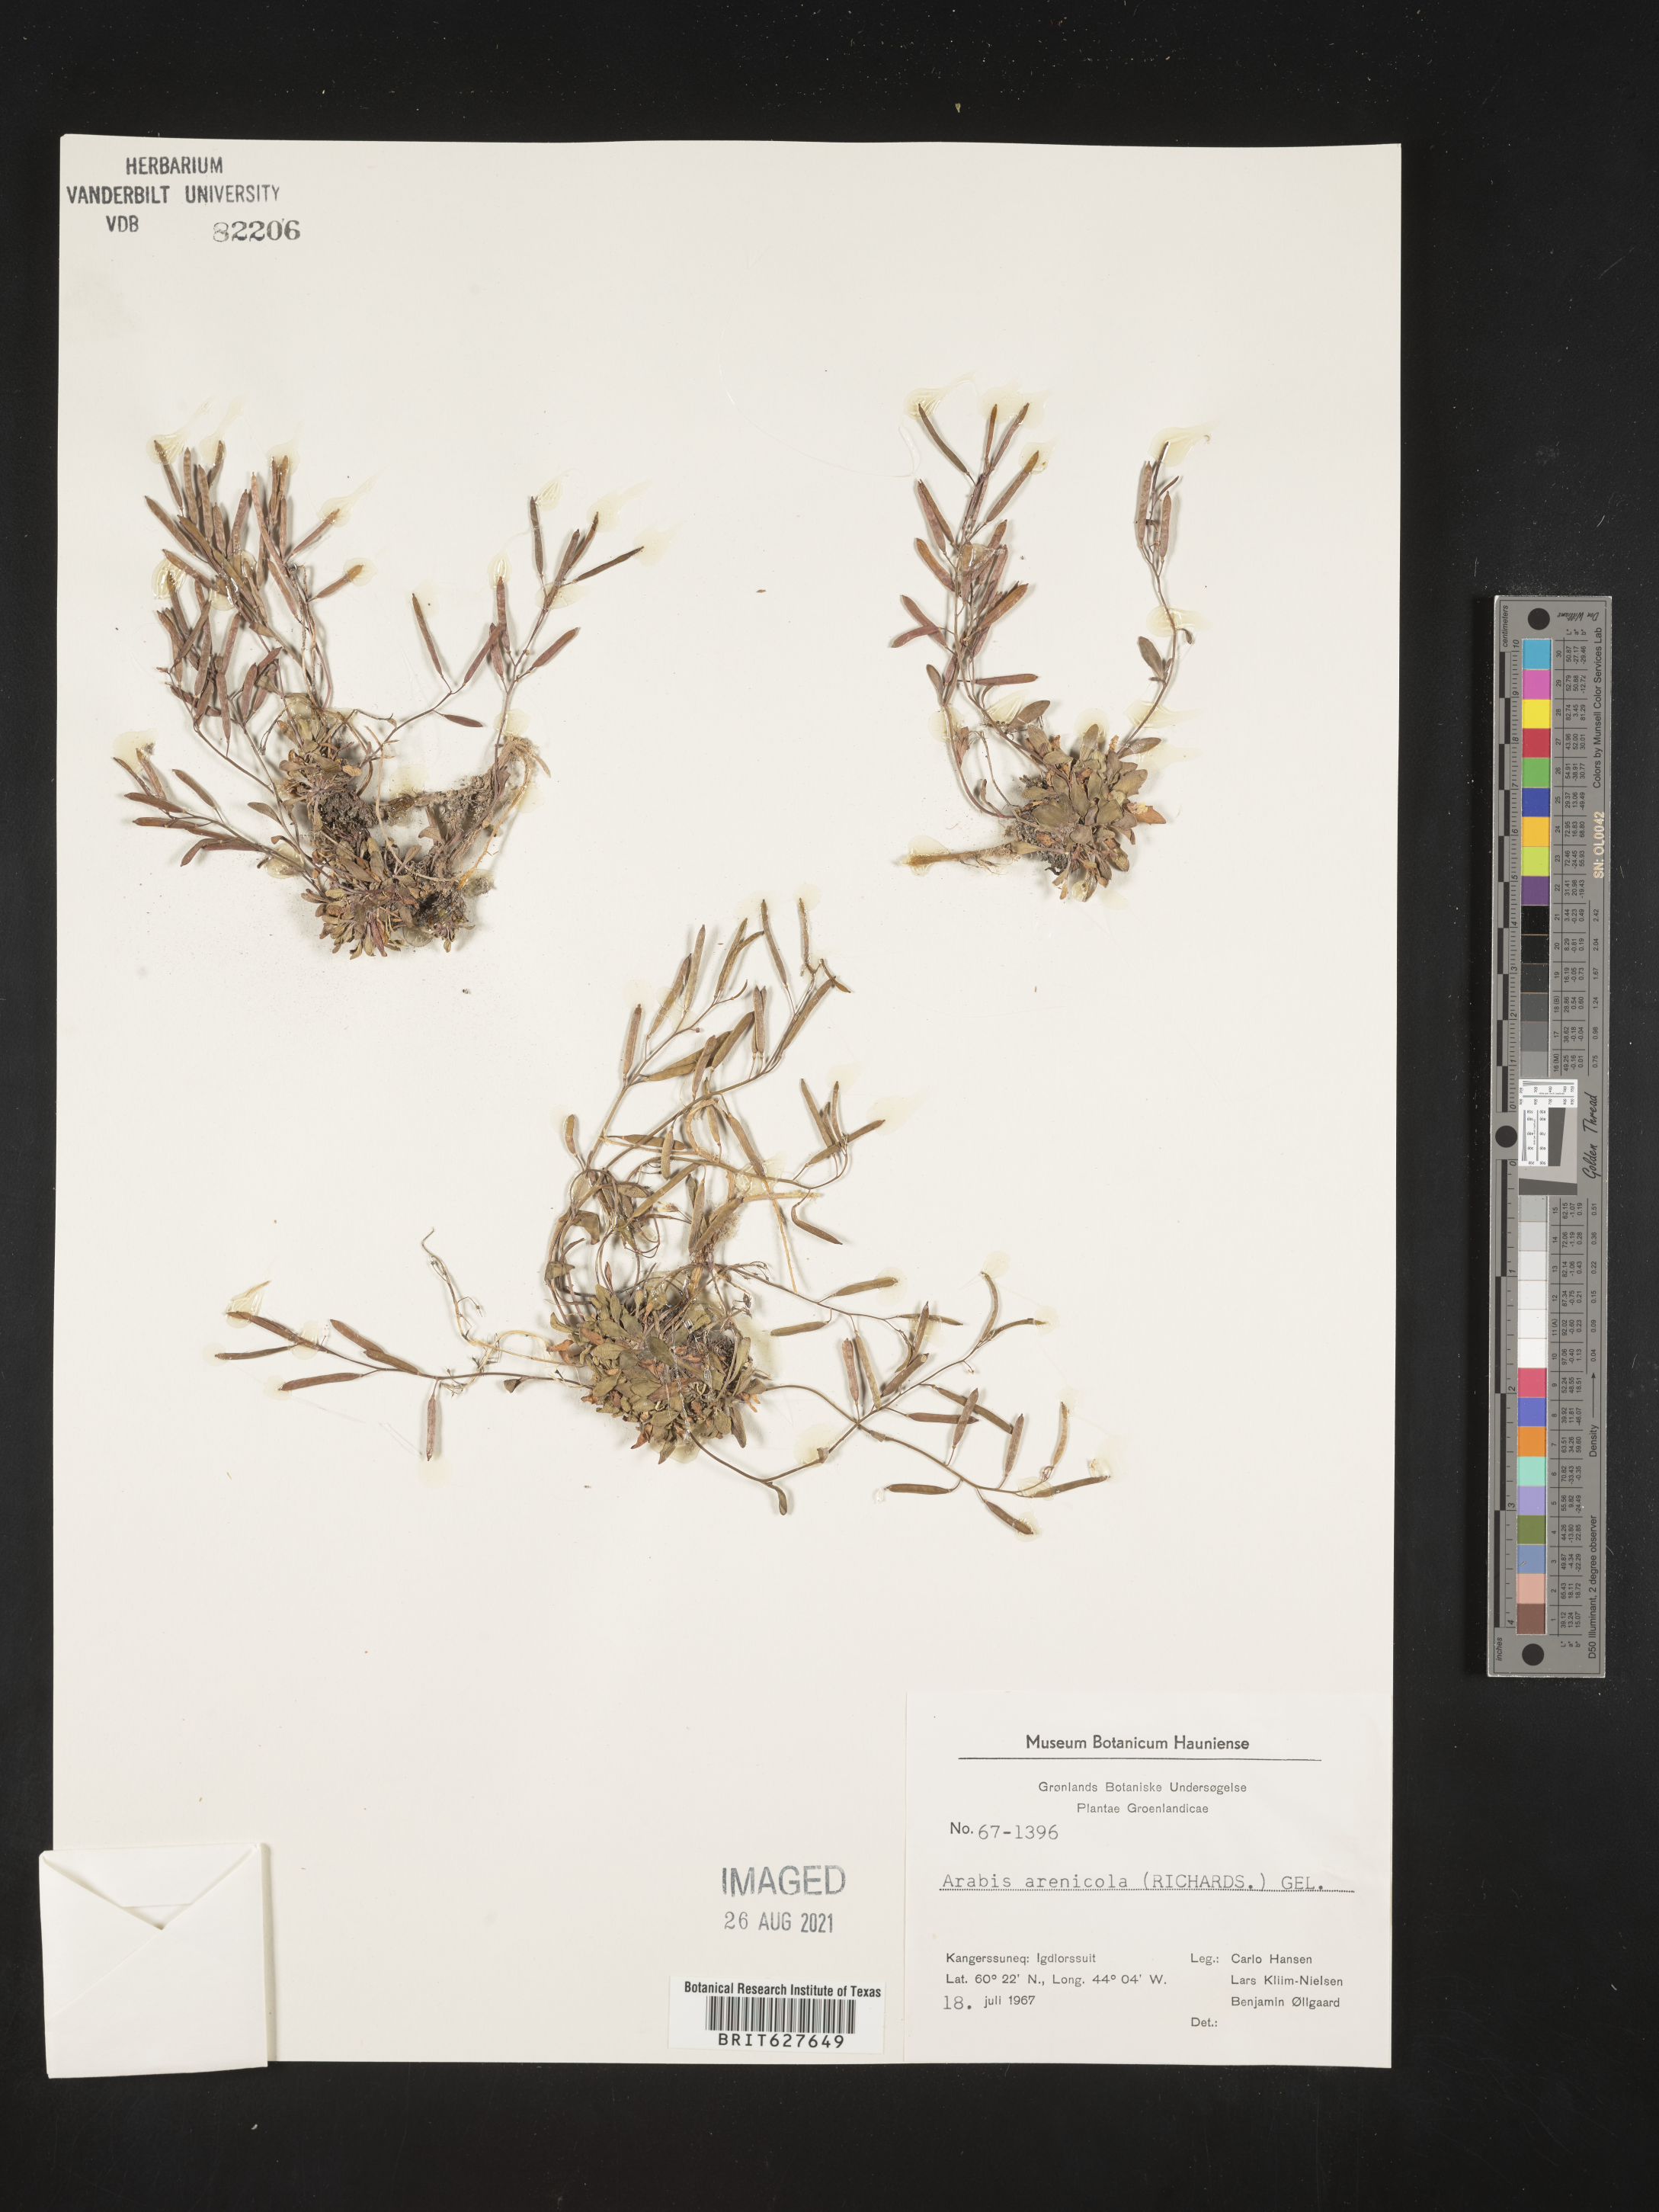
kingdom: Plantae
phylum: Tracheophyta
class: Magnoliopsida
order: Brassicales
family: Brassicaceae
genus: Arabidopsis
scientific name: Arabidopsis arenicola
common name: Arctic rockcress
